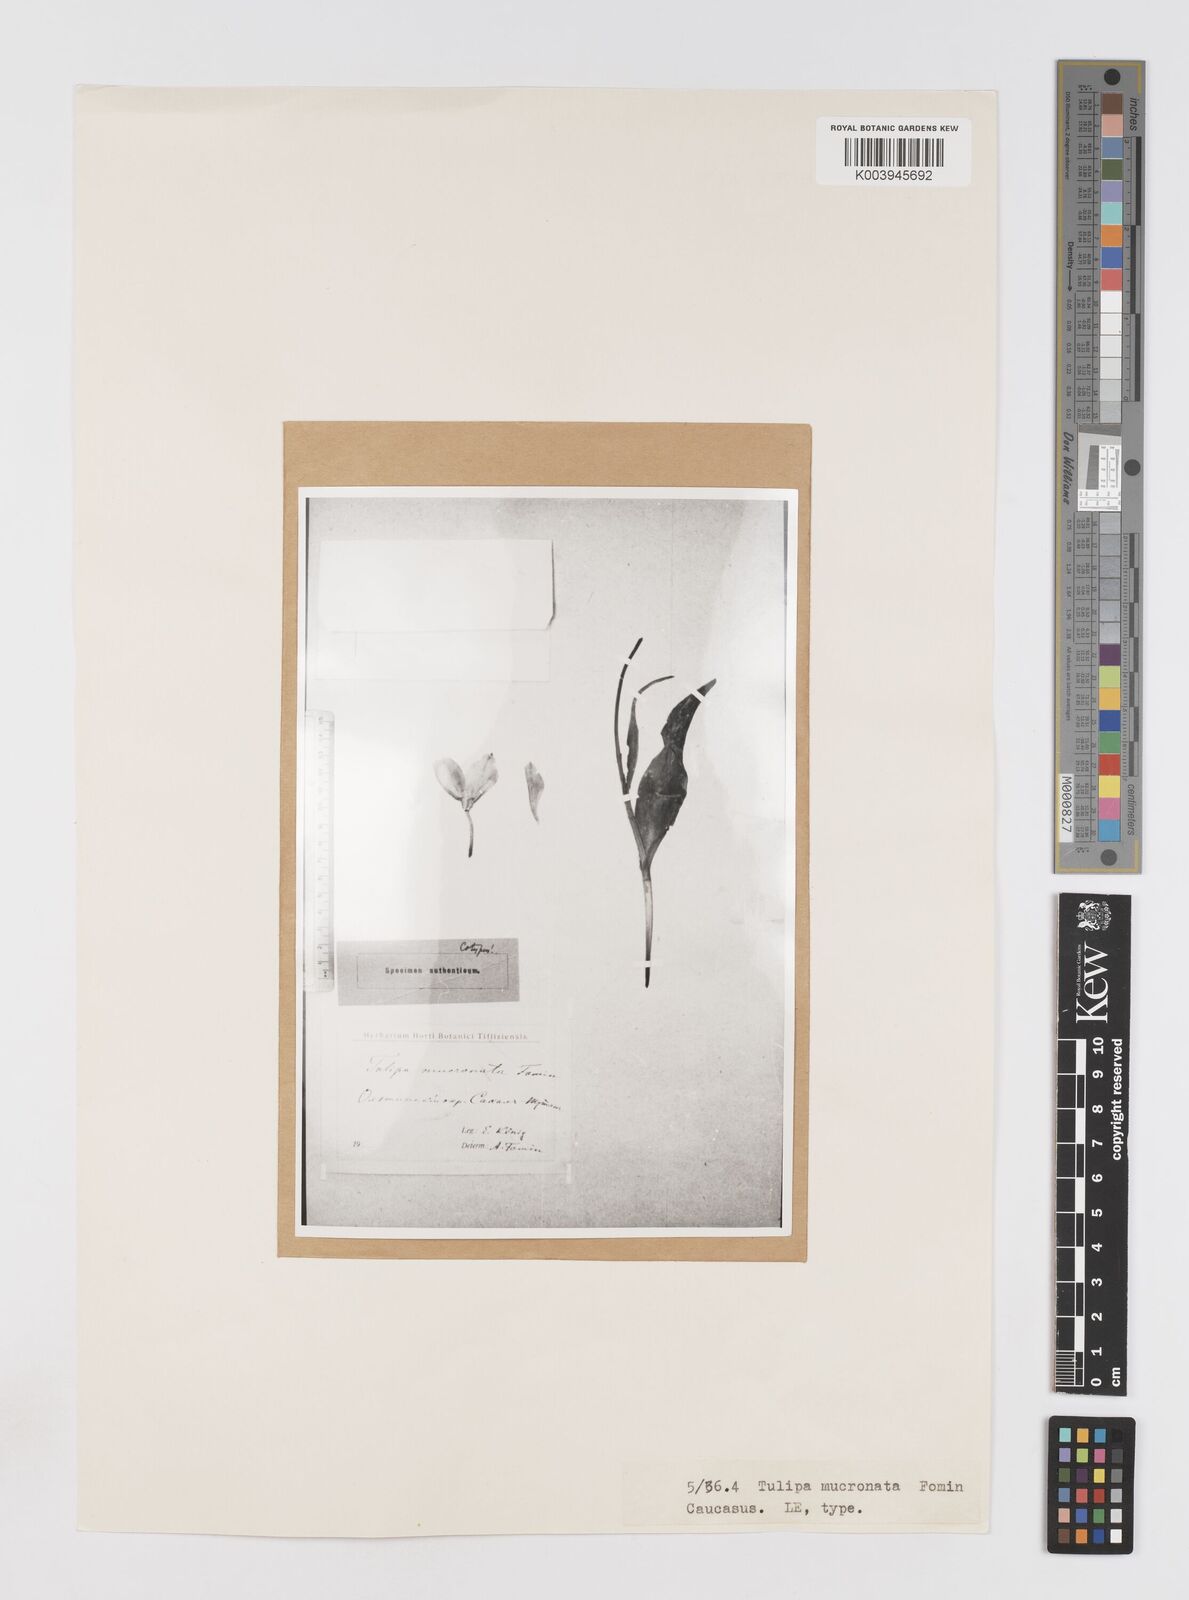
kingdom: Plantae
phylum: Tracheophyta
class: Liliopsida
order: Liliales
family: Liliaceae
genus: Tulipa
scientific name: Tulipa armena
